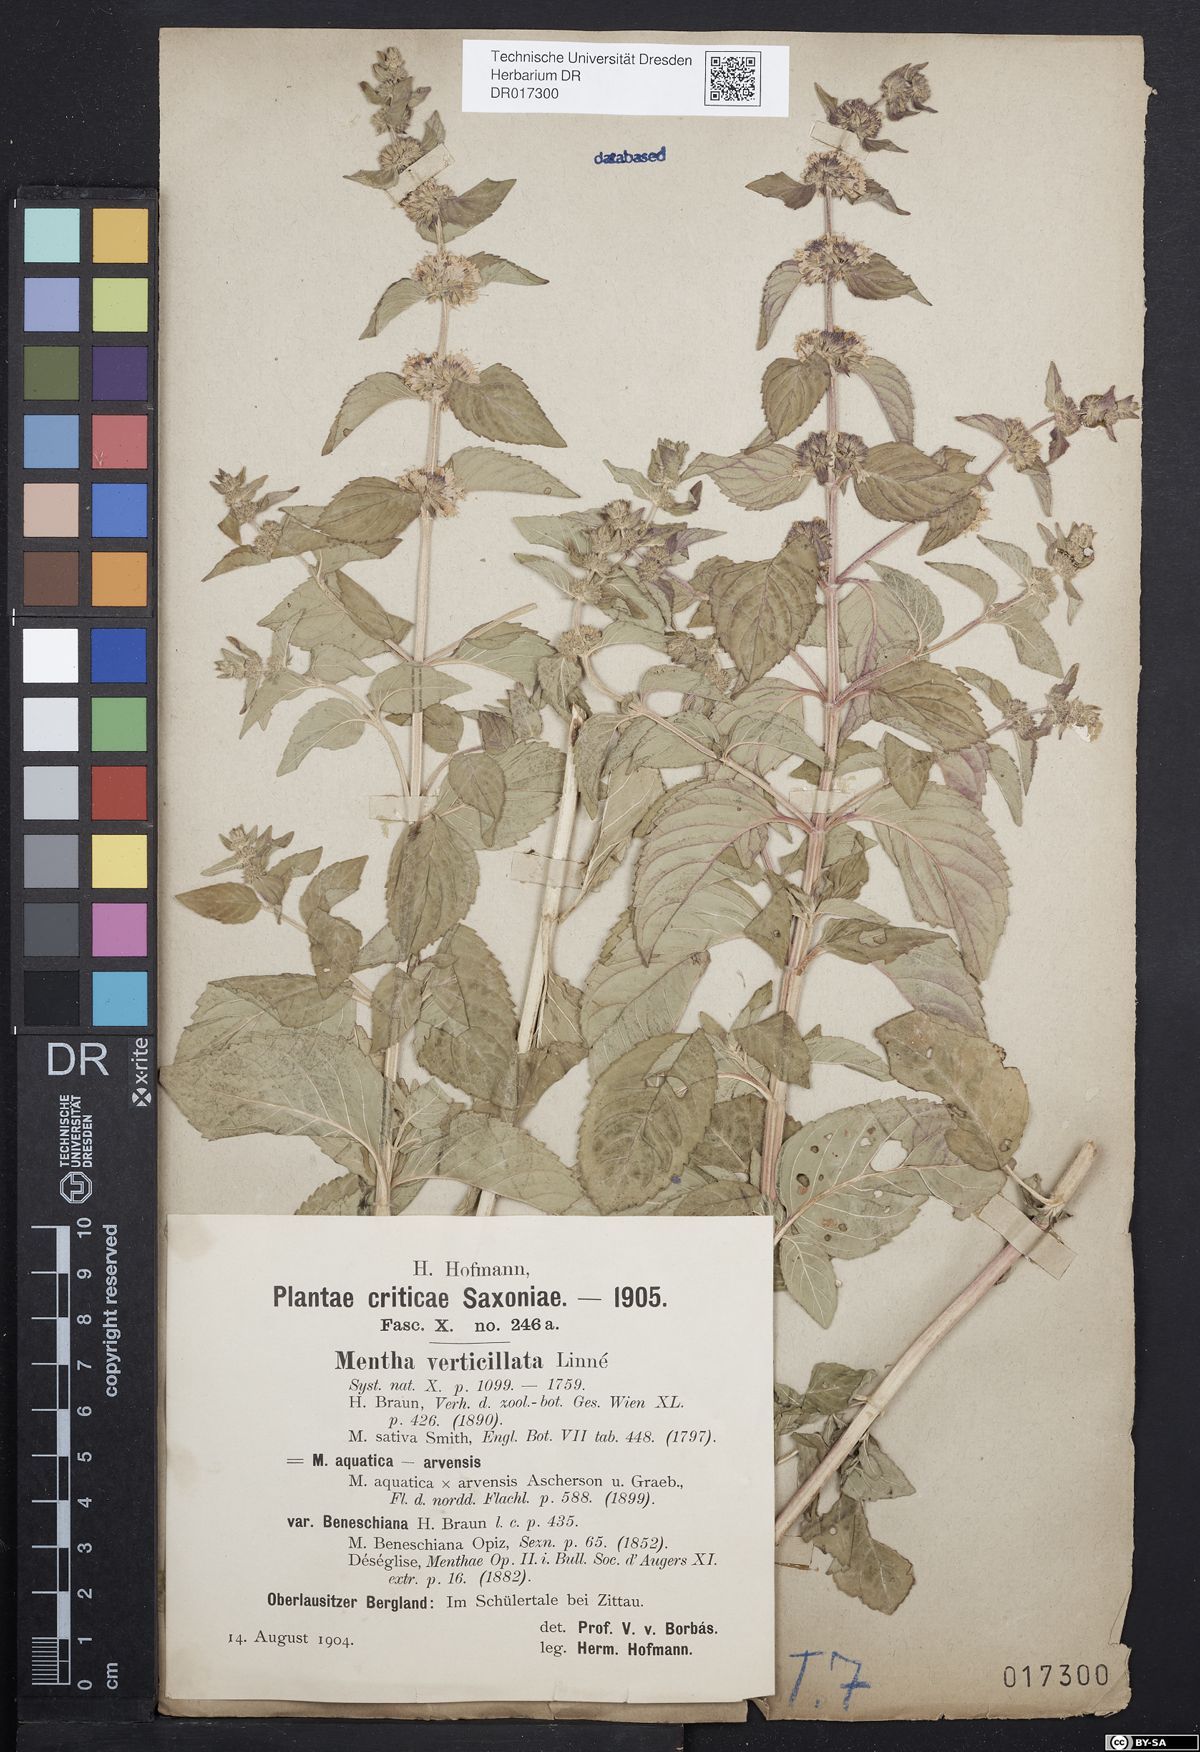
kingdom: Plantae
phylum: Tracheophyta
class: Magnoliopsida
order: Lamiales
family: Lamiaceae
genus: Mentha
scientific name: Mentha verticillata
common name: Mint
